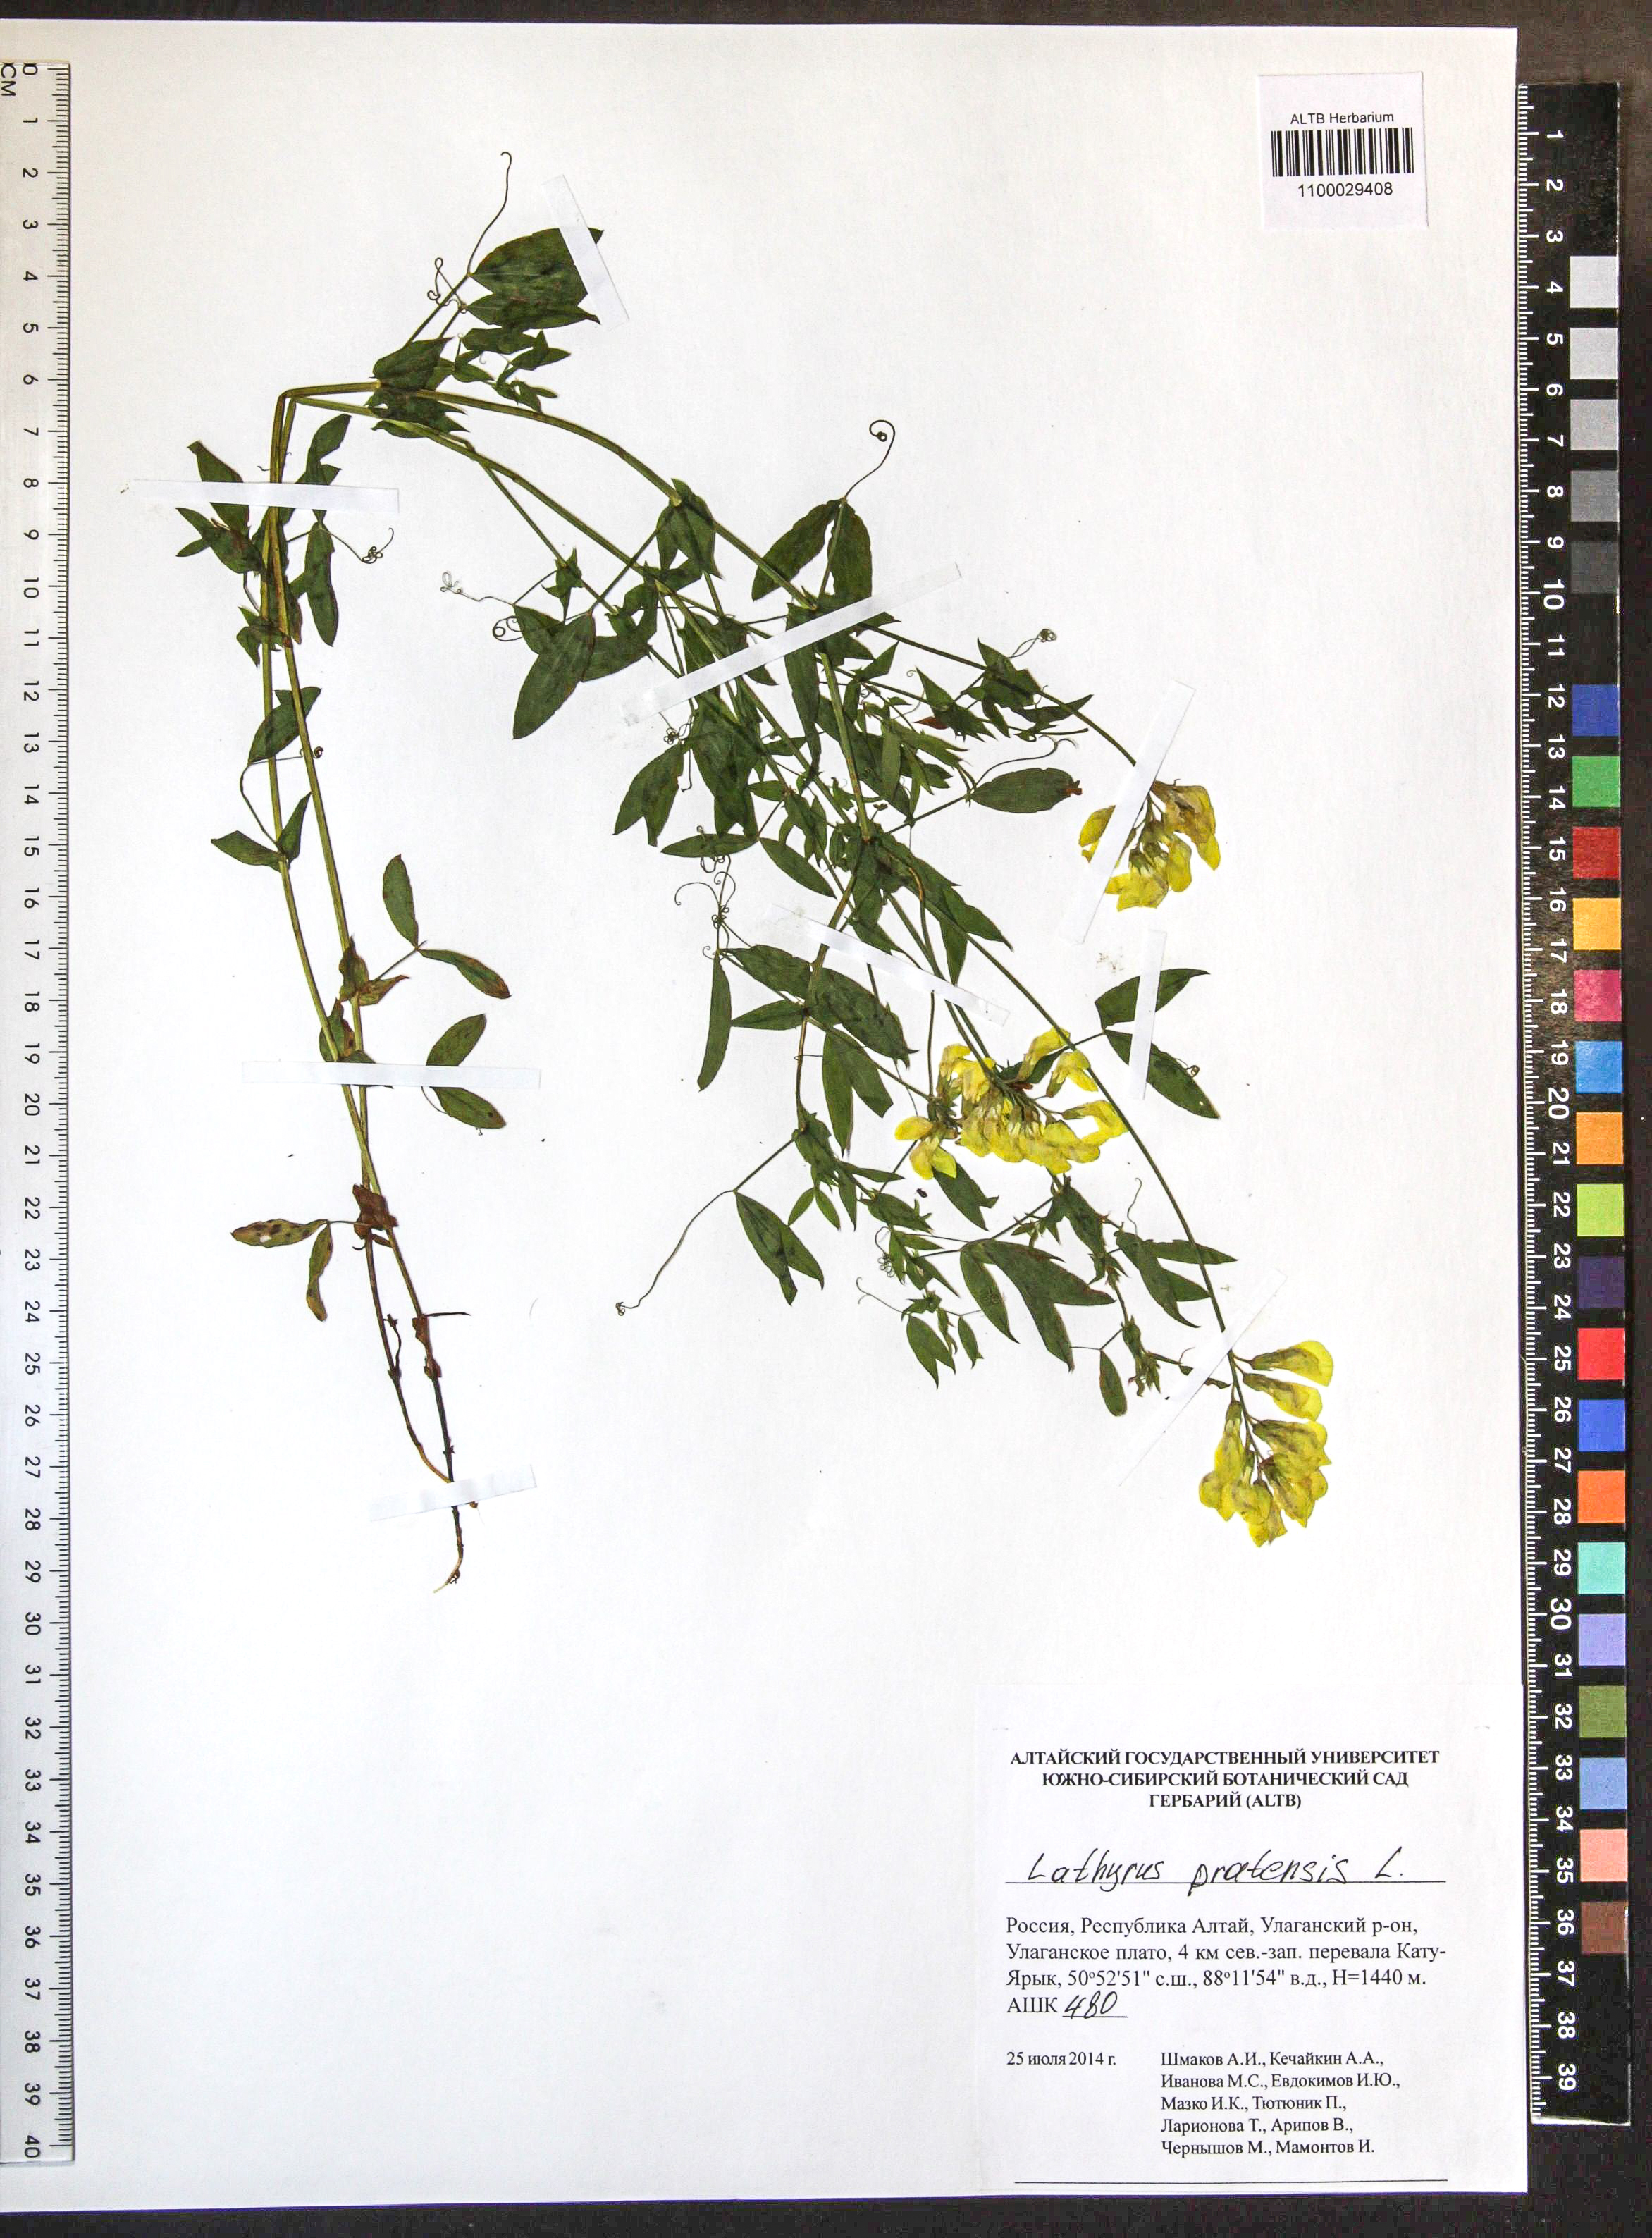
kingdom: Plantae
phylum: Tracheophyta
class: Magnoliopsida
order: Fabales
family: Fabaceae
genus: Lathyrus
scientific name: Lathyrus pratensis
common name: Meadow vetchling
